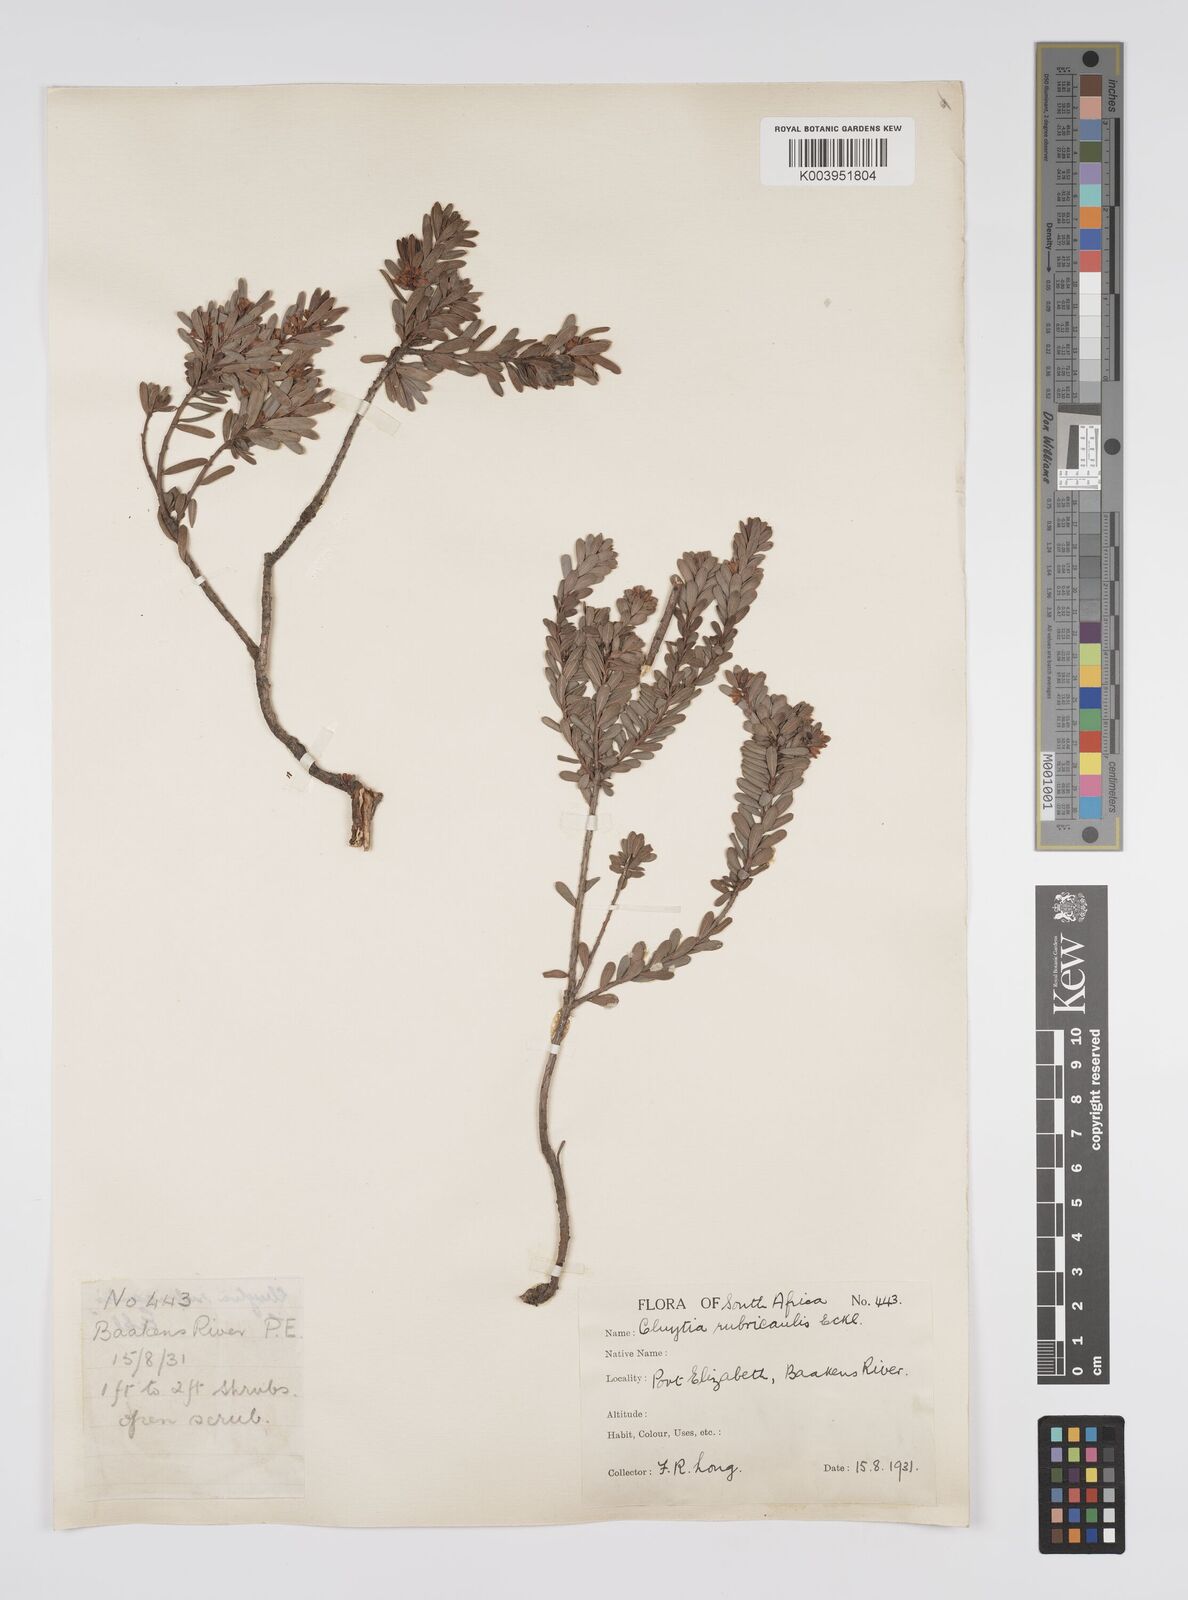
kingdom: Plantae
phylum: Tracheophyta
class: Magnoliopsida
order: Malpighiales
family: Peraceae
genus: Clutia
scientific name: Clutia rubricaulis
